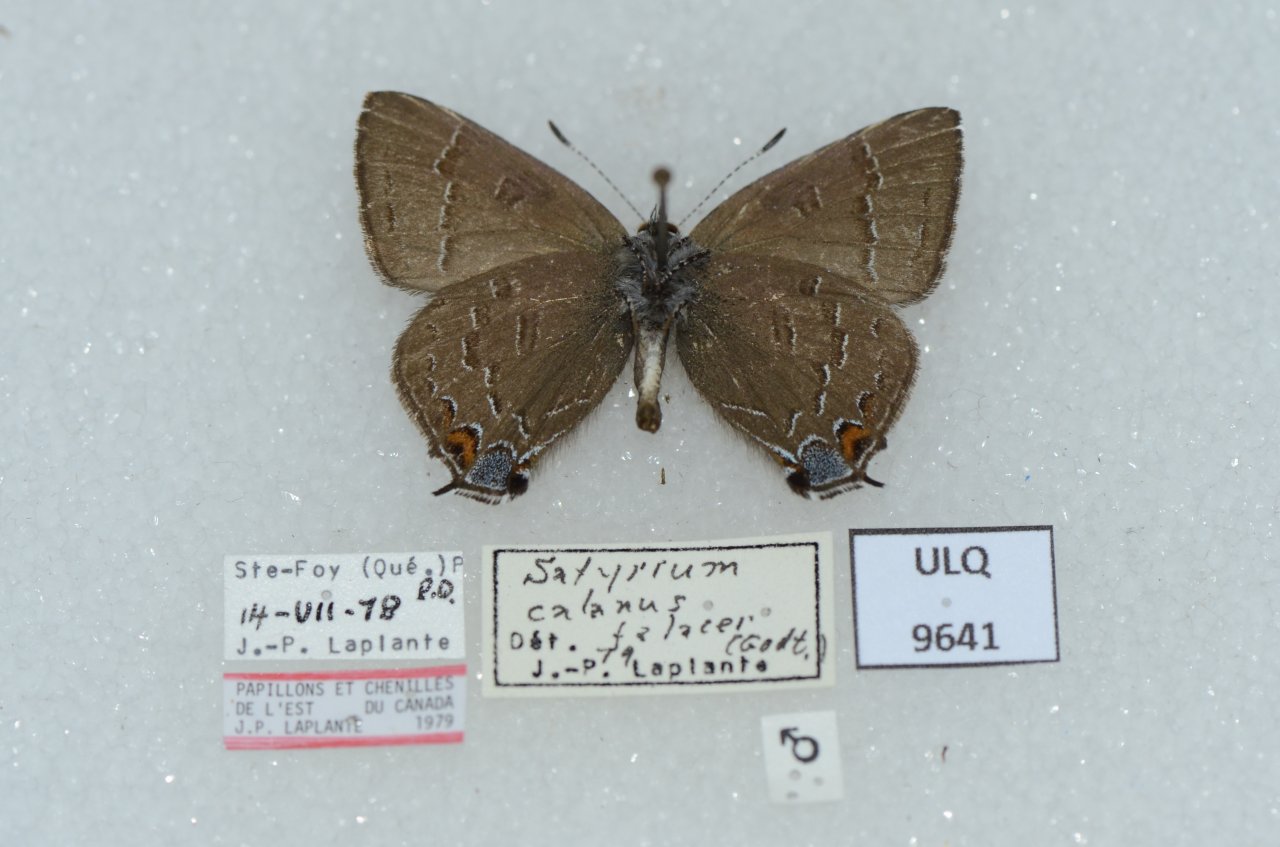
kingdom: Animalia
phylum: Arthropoda
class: Insecta
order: Lepidoptera
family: Lycaenidae
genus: Satyrium
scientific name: Satyrium calanus
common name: Banded Hairstreak
